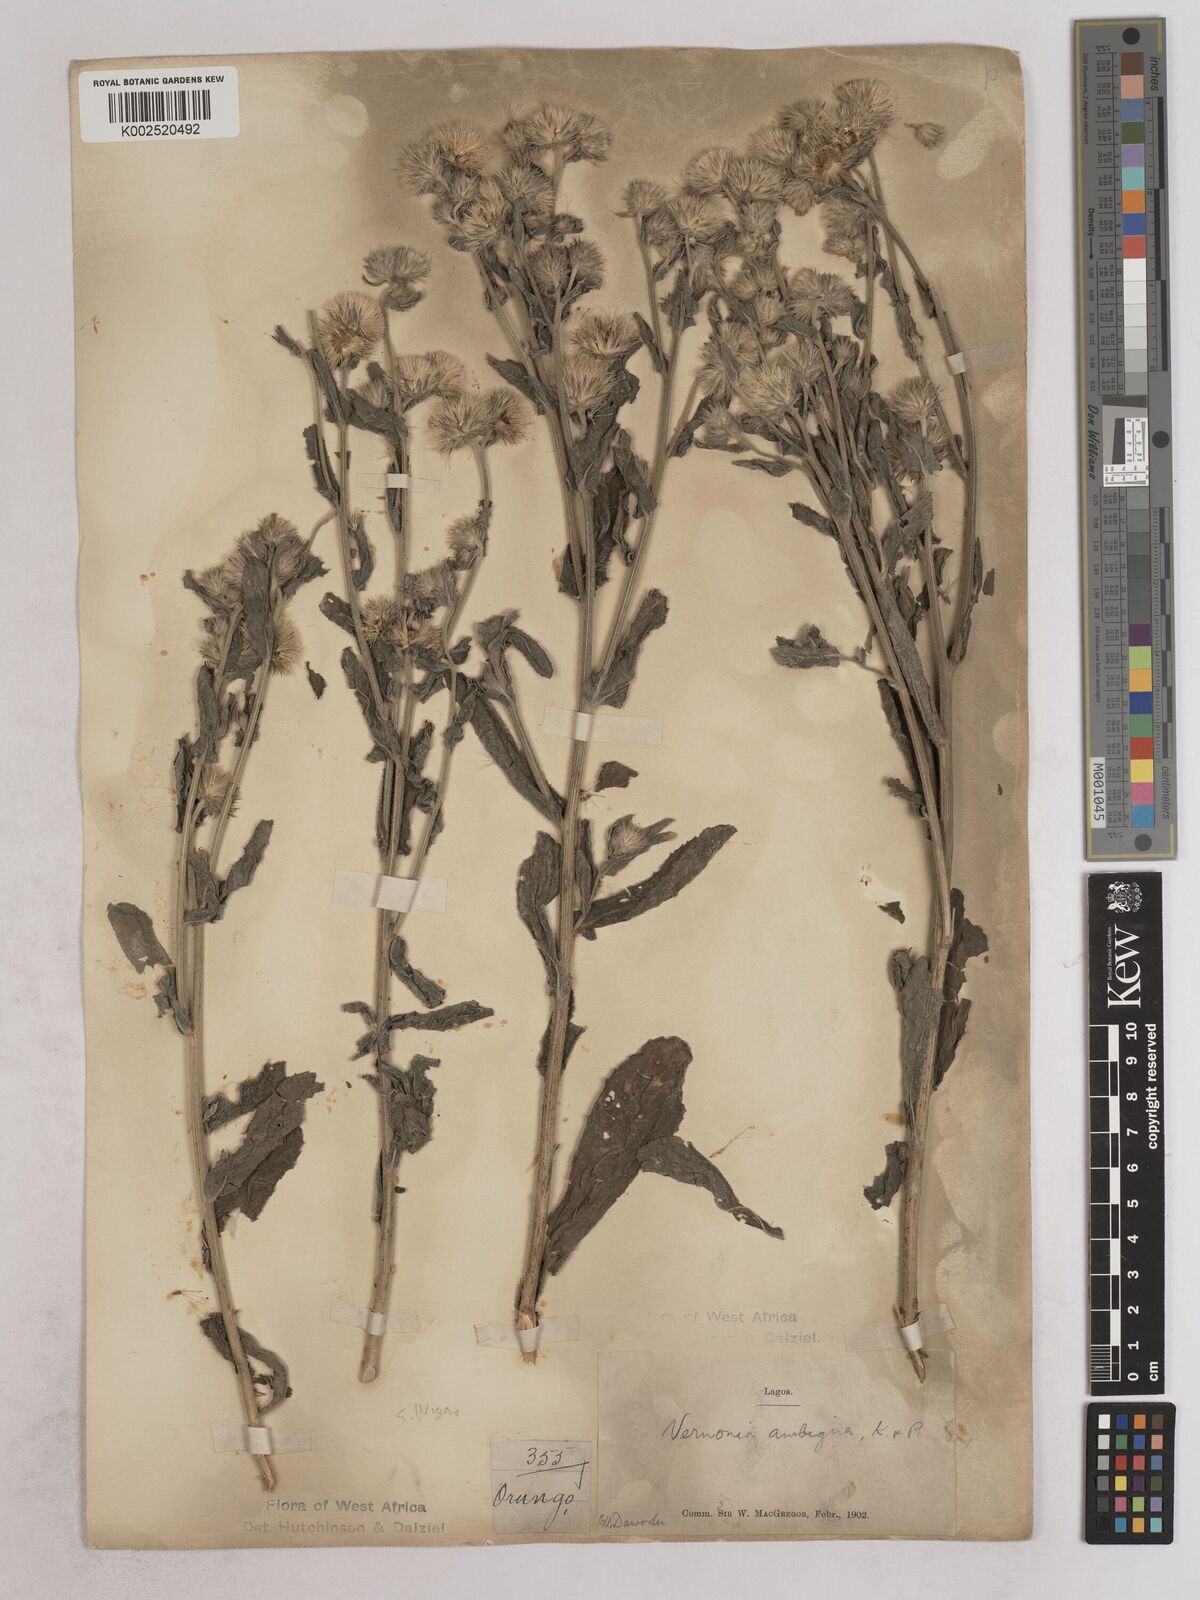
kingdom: Plantae
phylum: Tracheophyta
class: Magnoliopsida
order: Asterales
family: Asteraceae
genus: Vernoniastrum
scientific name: Vernoniastrum ambiguum
